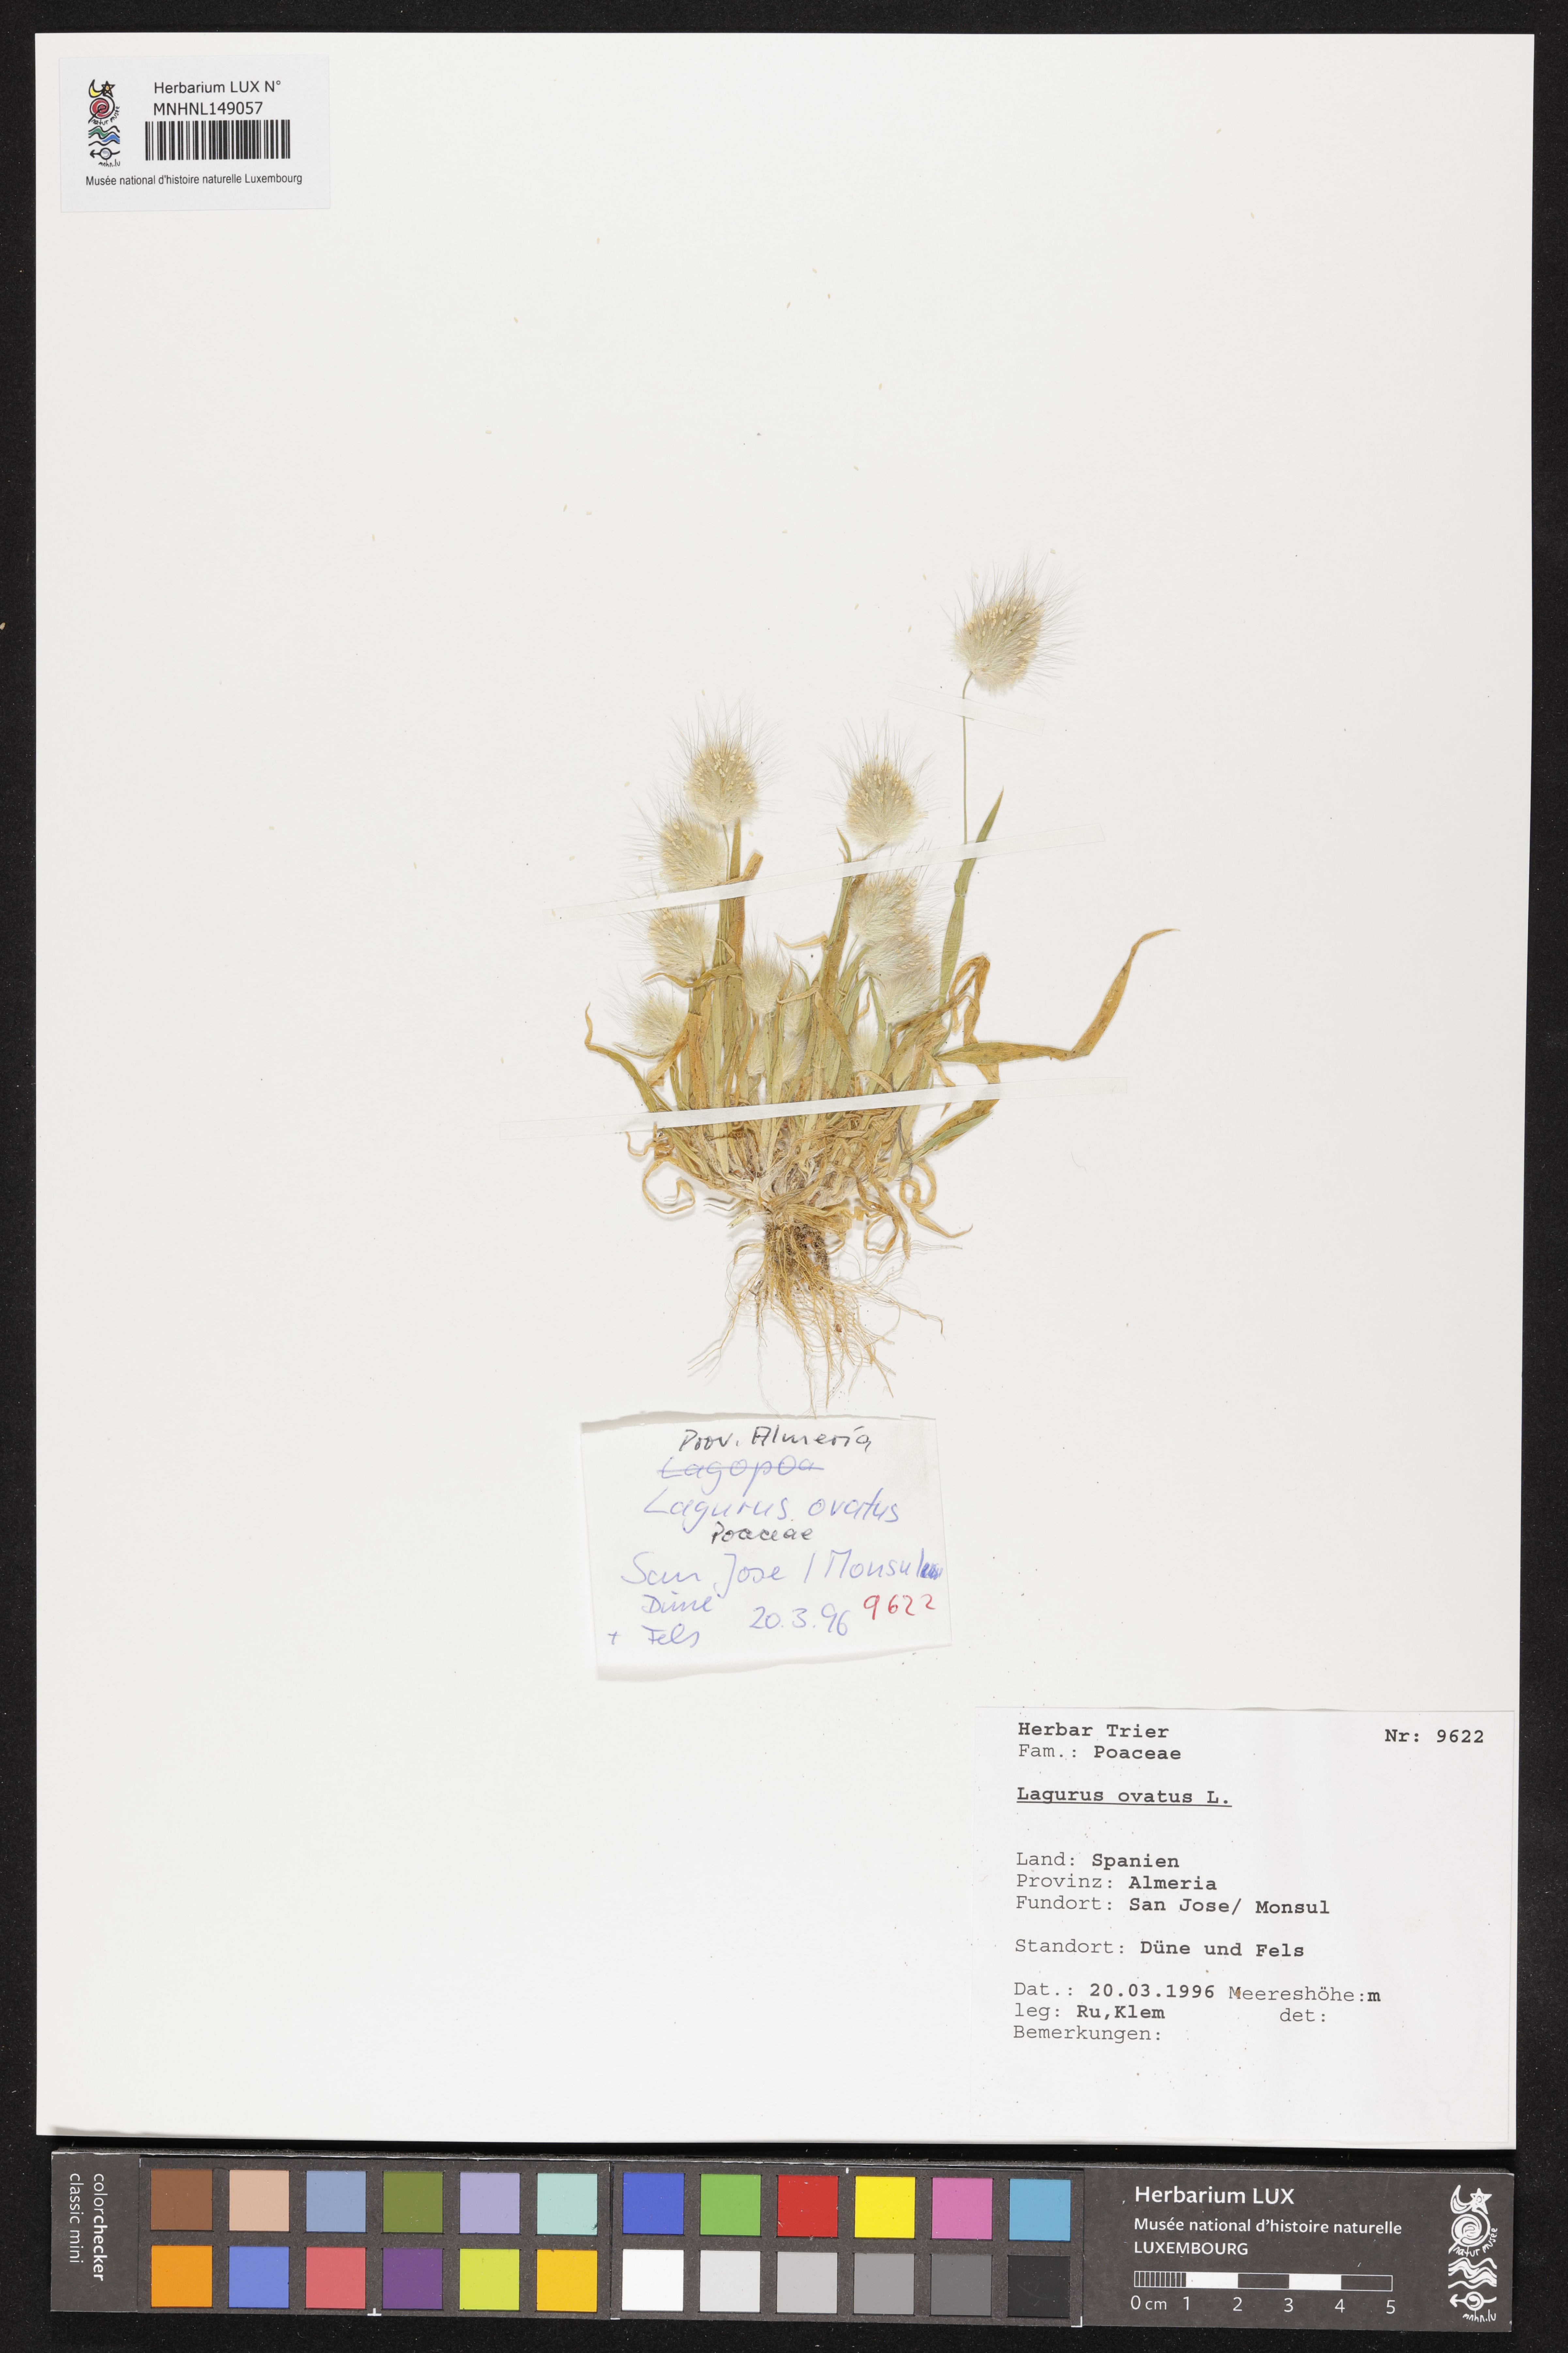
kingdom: Plantae
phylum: Tracheophyta
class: Liliopsida
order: Poales
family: Poaceae
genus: Lagurus
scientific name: Lagurus ovatus
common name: Hare's-tail
